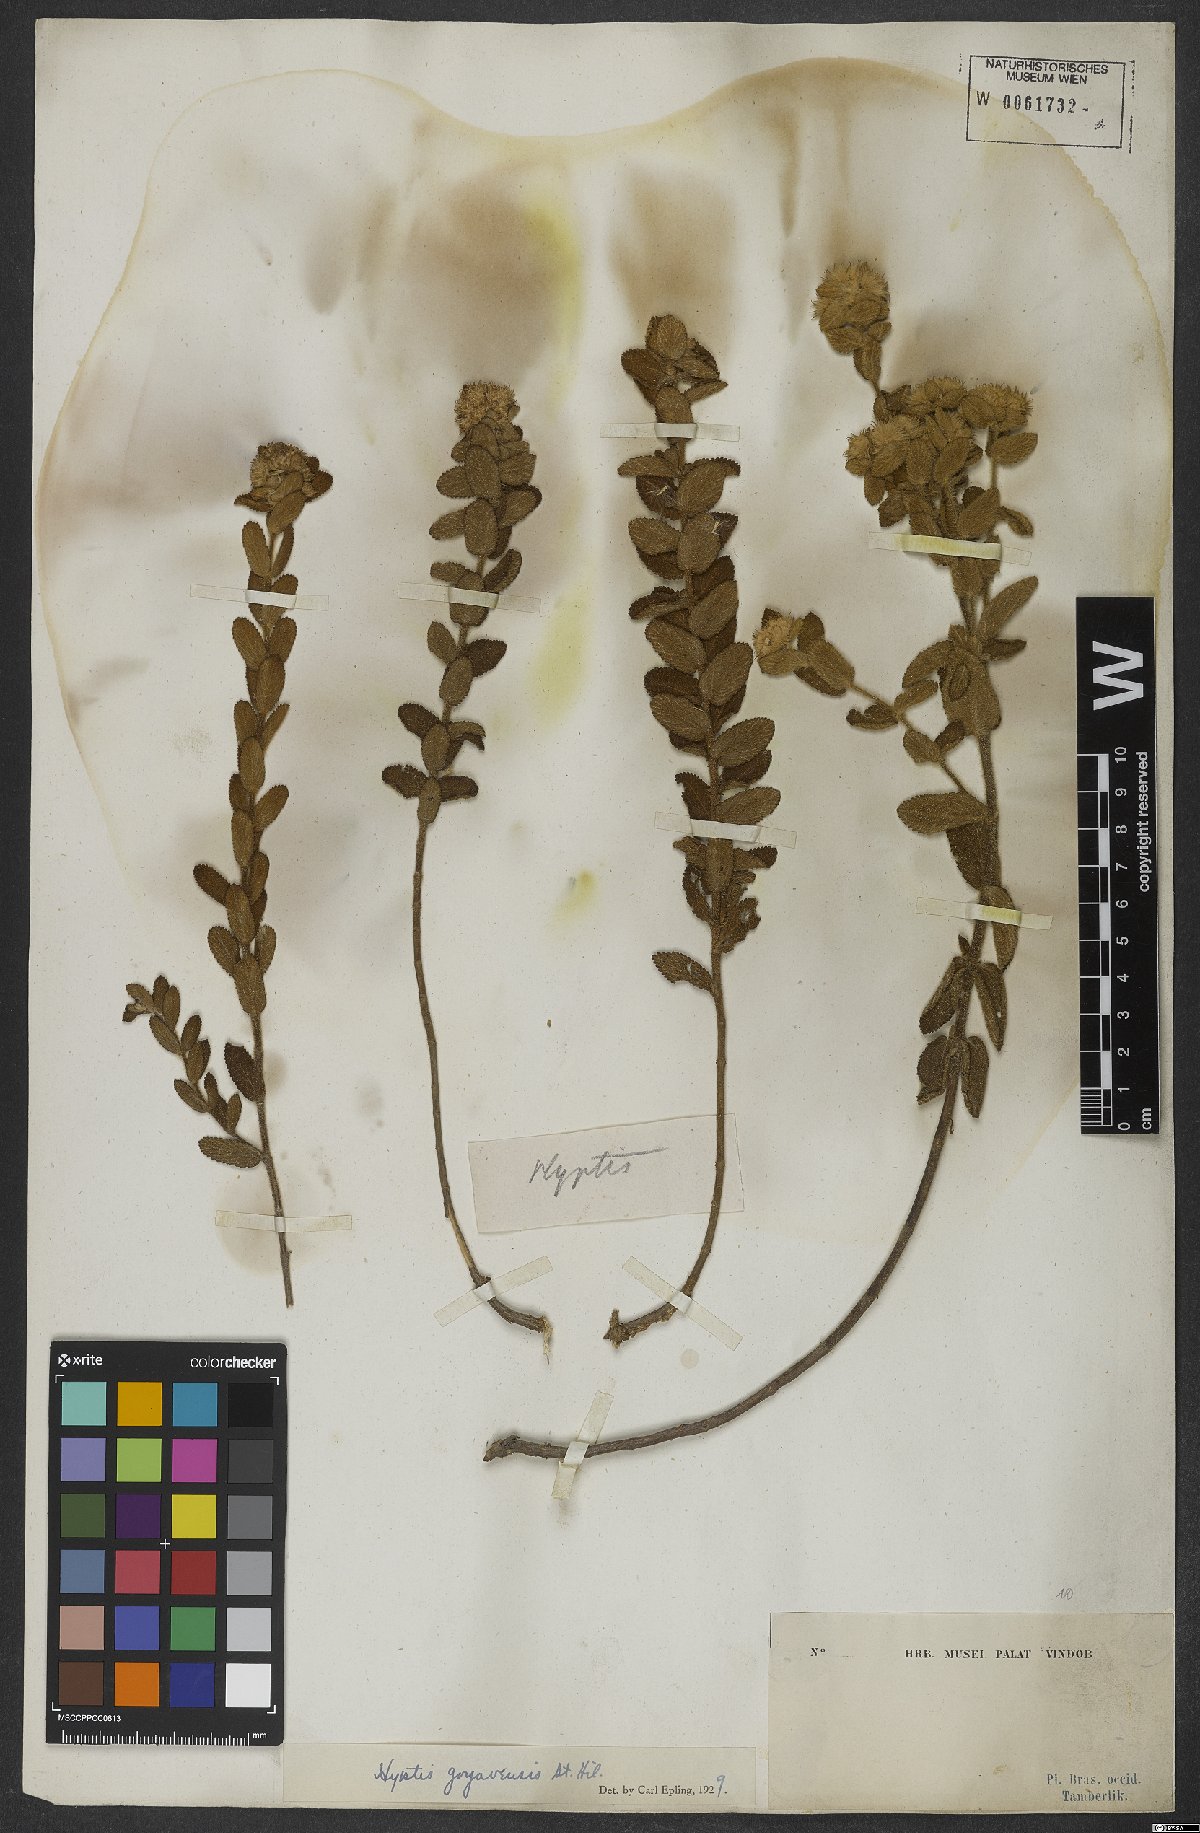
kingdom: Plantae
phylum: Tracheophyta
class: Magnoliopsida
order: Lamiales
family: Lamiaceae
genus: Hyptis
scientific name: Hyptis crenata
